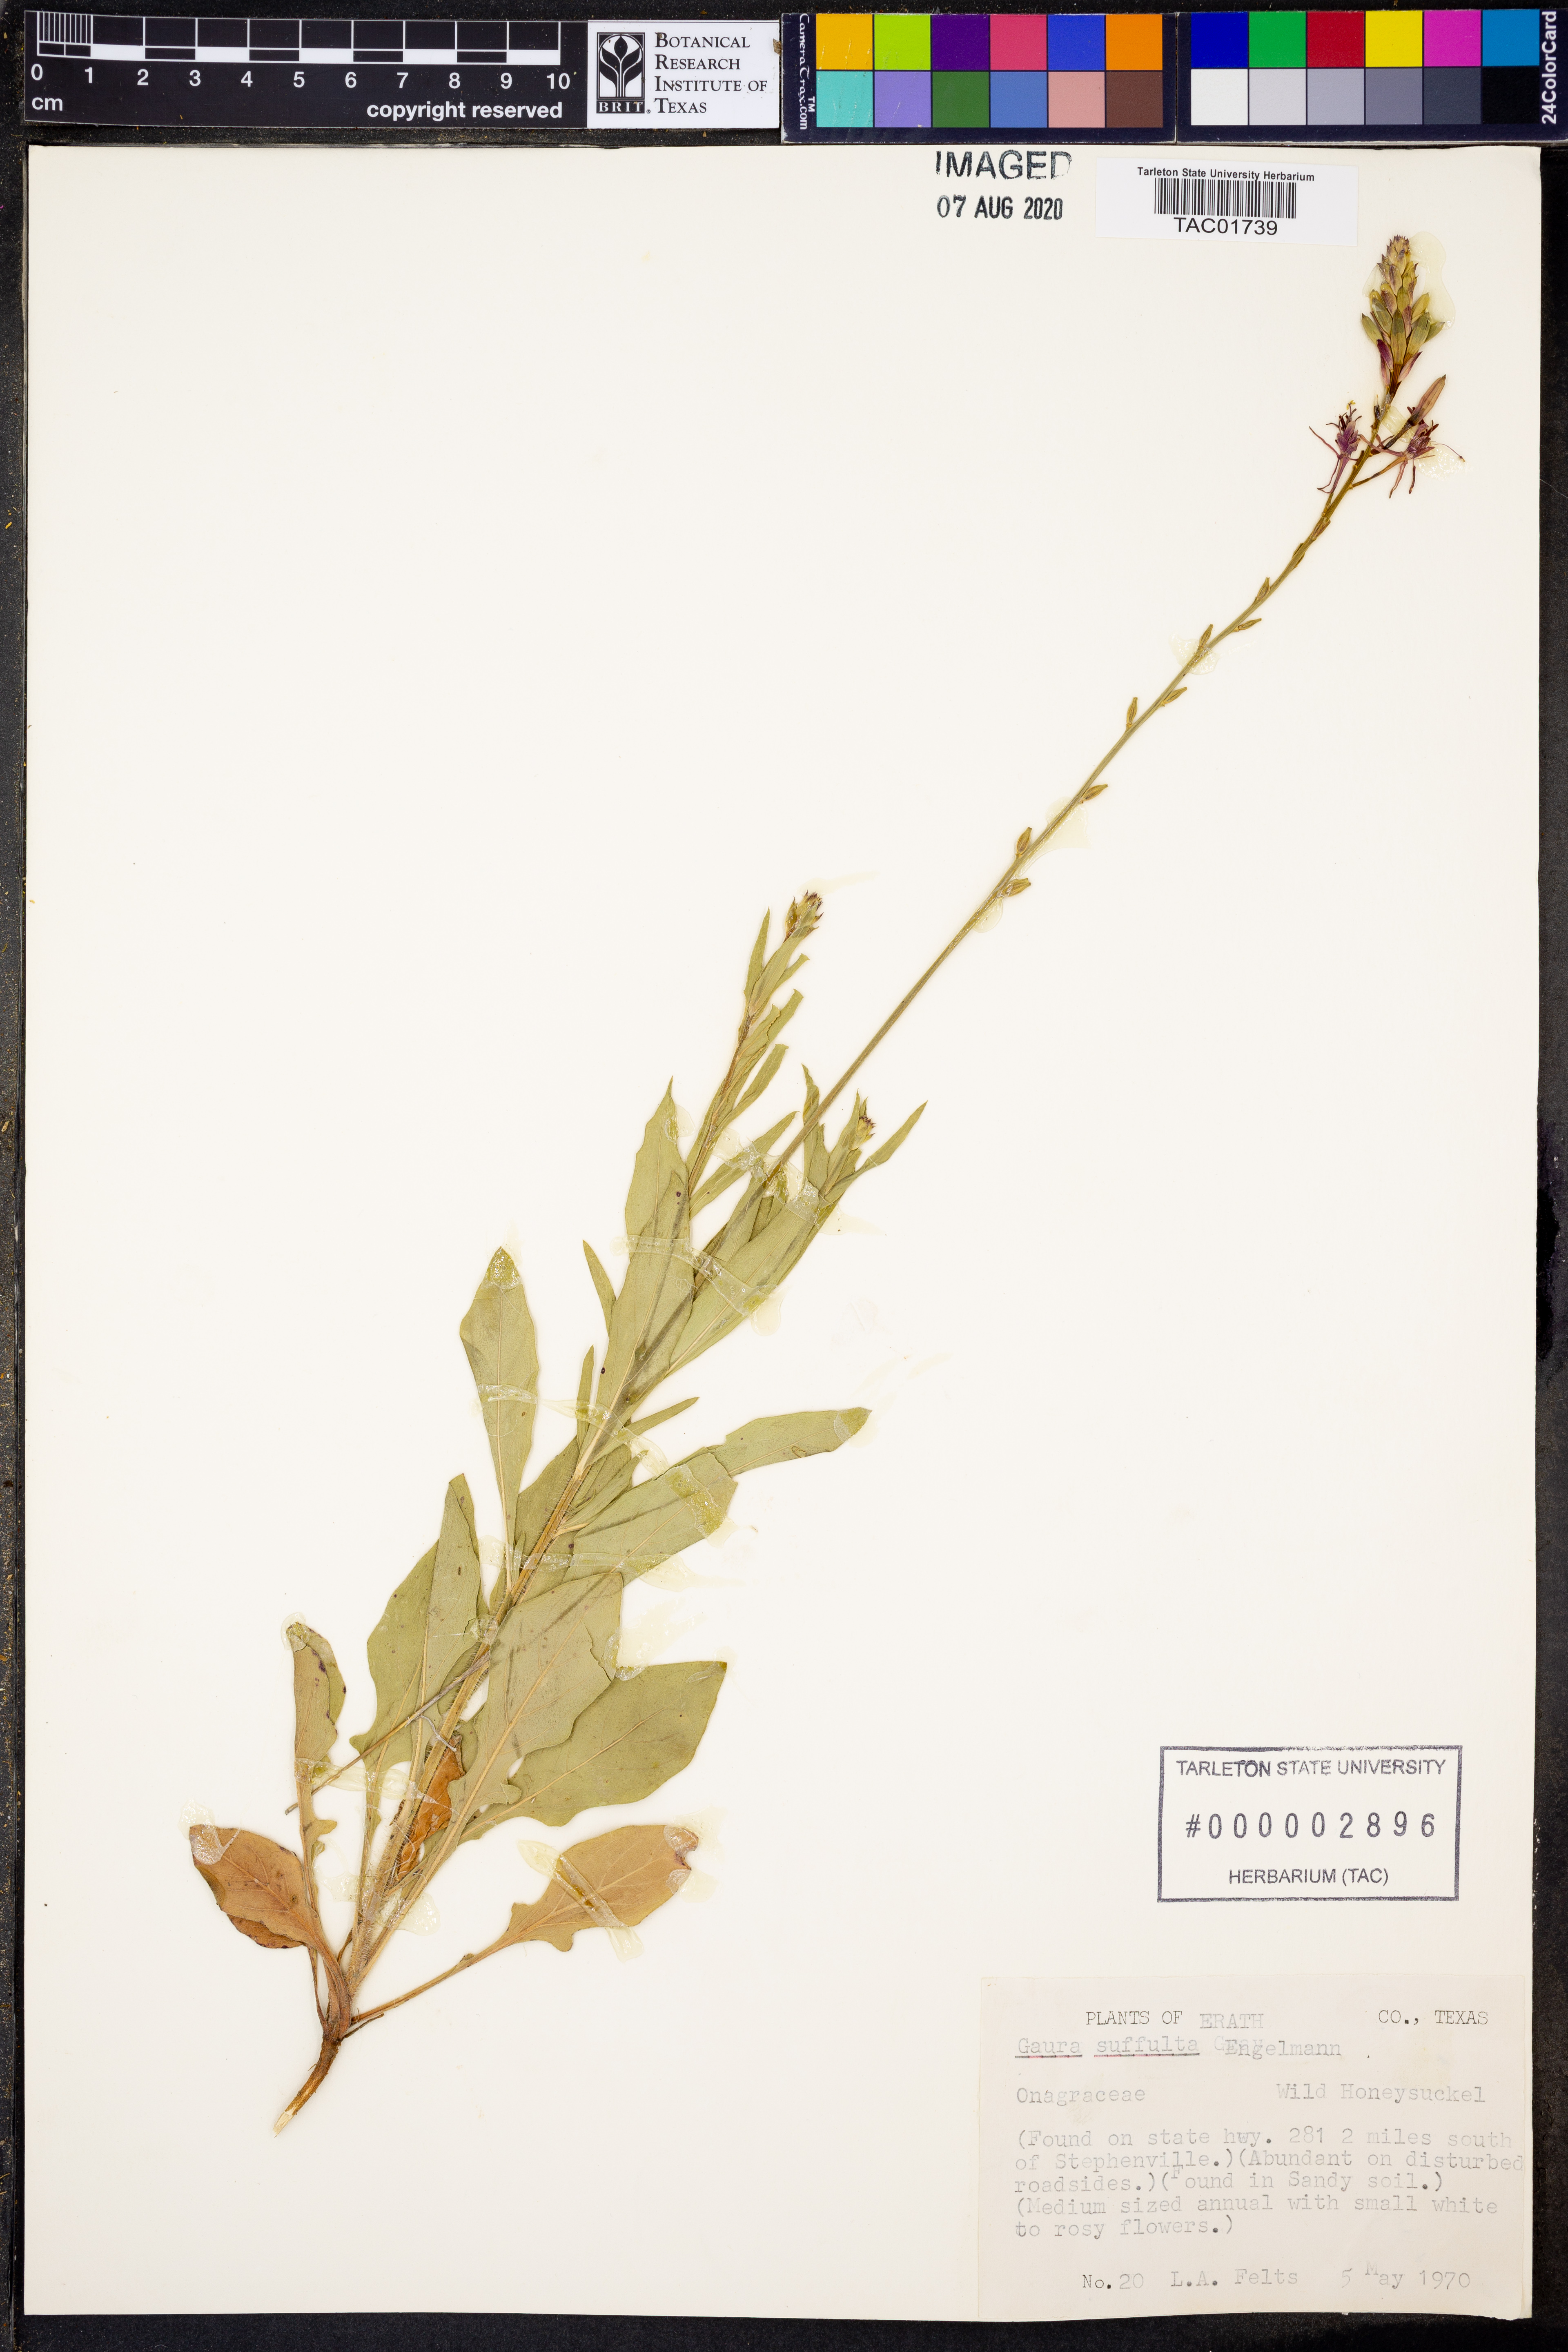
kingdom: Plantae
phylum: Tracheophyta
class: Magnoliopsida
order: Myrtales
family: Onagraceae
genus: Oenothera
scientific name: Oenothera Gaura suffulta
